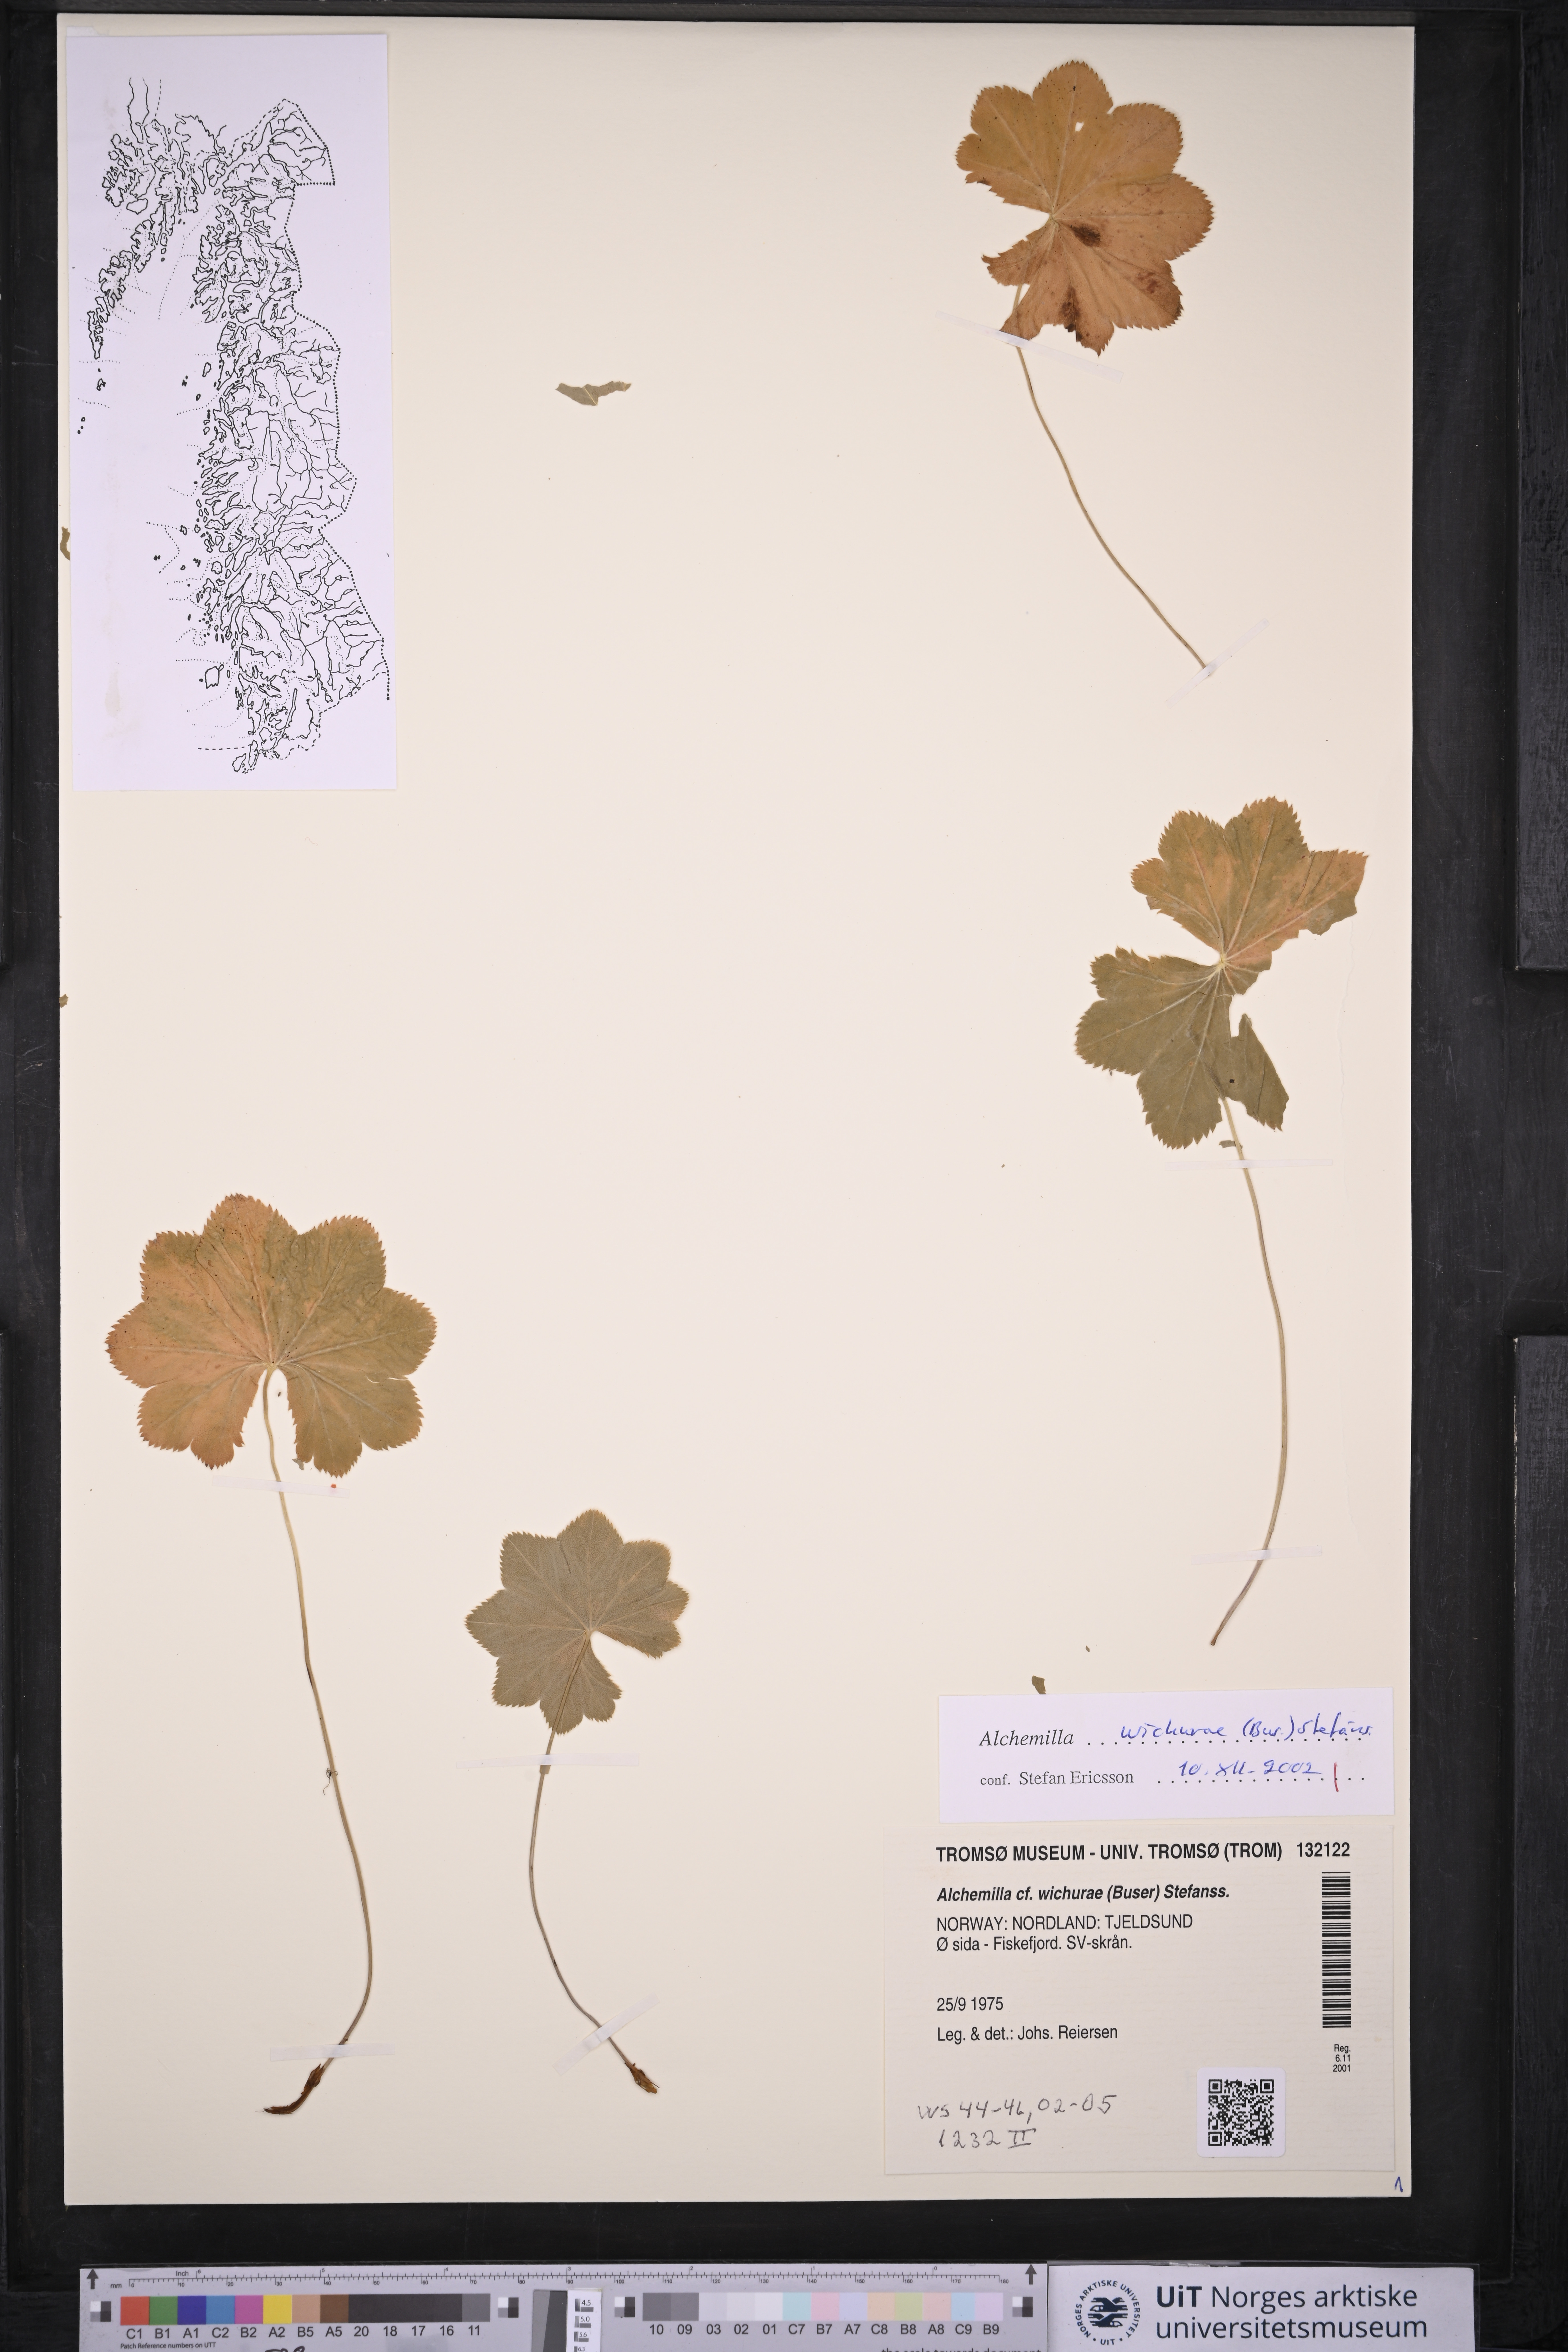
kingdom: Plantae
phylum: Tracheophyta
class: Magnoliopsida
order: Rosales
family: Rosaceae
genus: Alchemilla
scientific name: Alchemilla wichurae
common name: Rock lady's mantle
